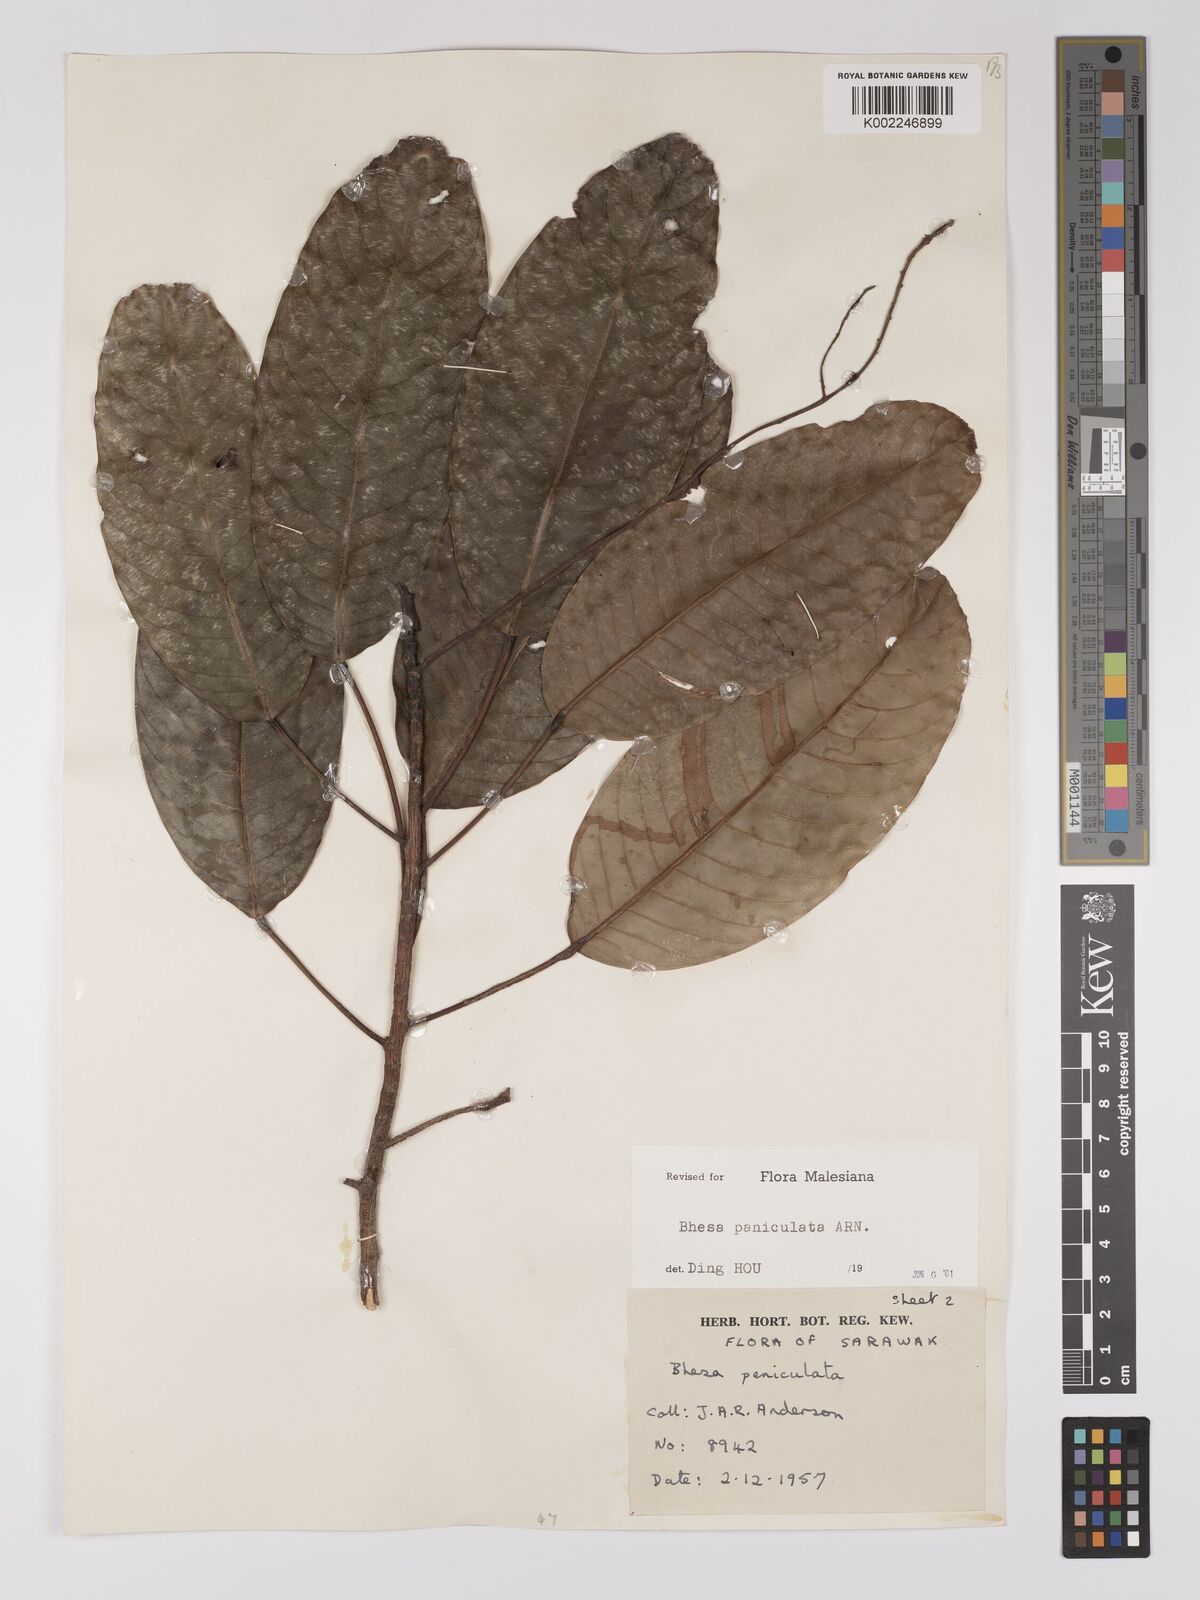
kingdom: Plantae
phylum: Tracheophyta
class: Magnoliopsida
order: Malpighiales
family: Centroplacaceae
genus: Bhesa
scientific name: Bhesa paniculata
